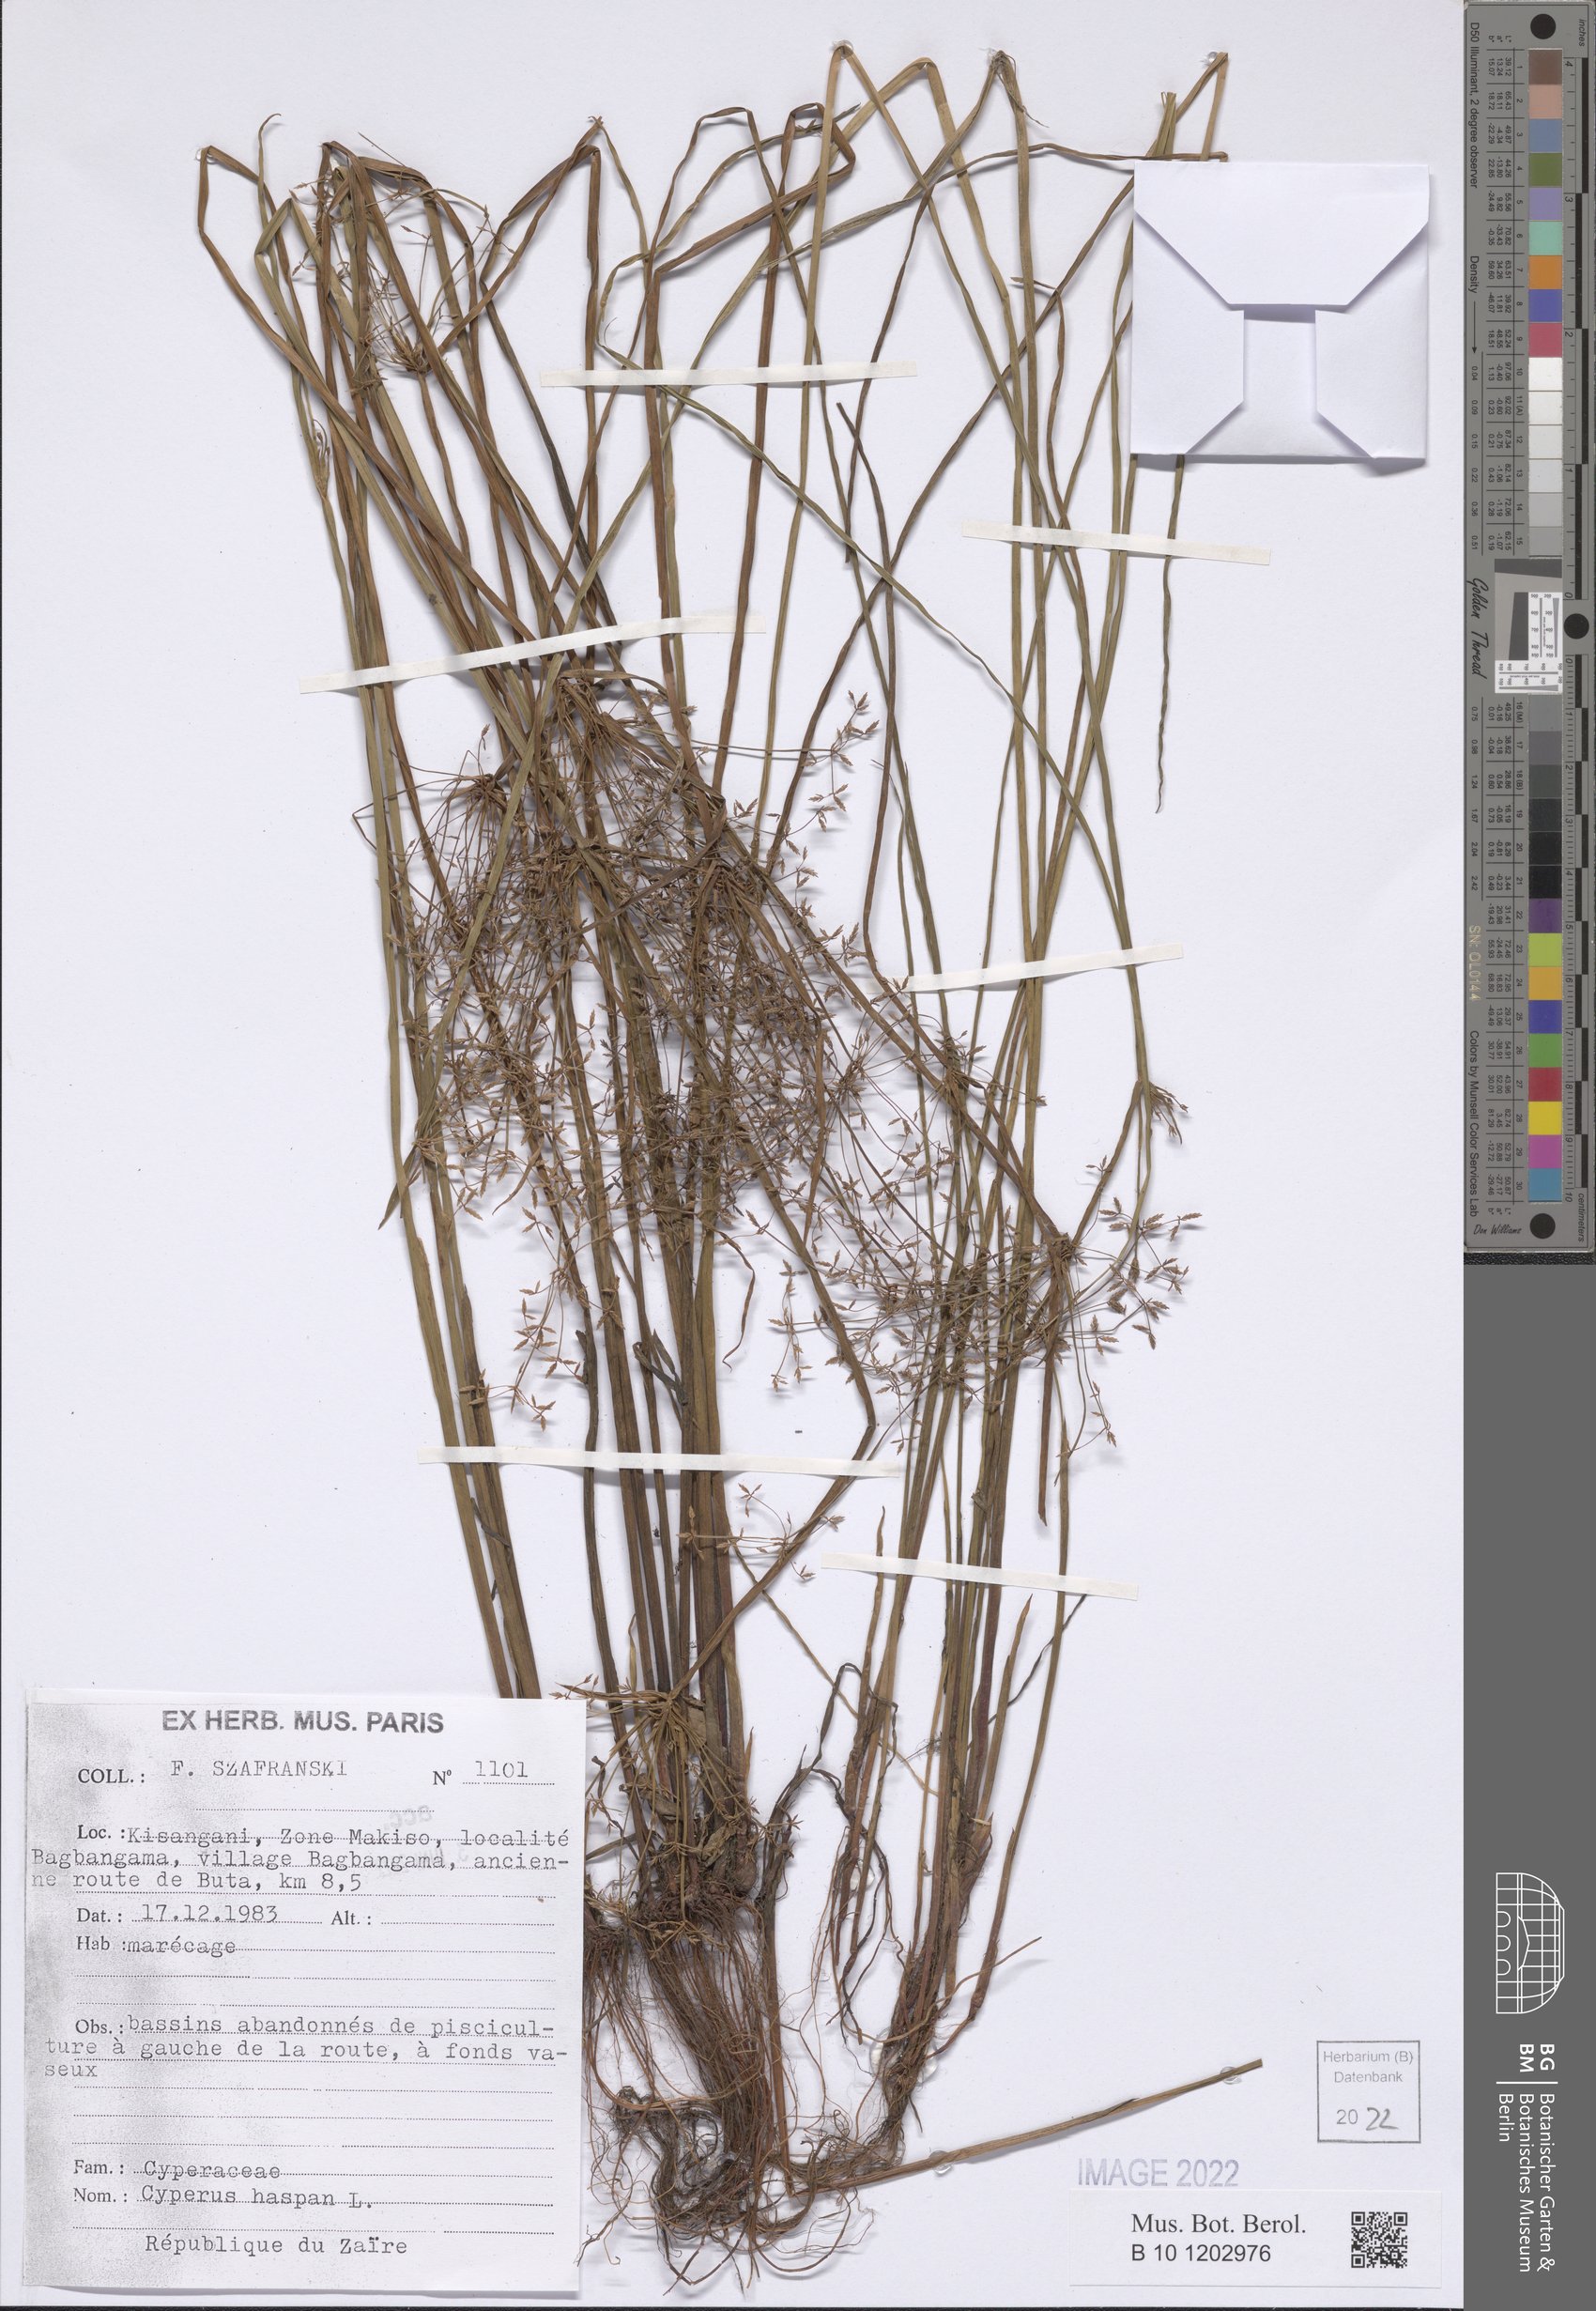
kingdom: Plantae
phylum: Tracheophyta
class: Liliopsida
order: Poales
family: Cyperaceae
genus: Cyperus
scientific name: Cyperus haspan
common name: Haspan flatsedge
